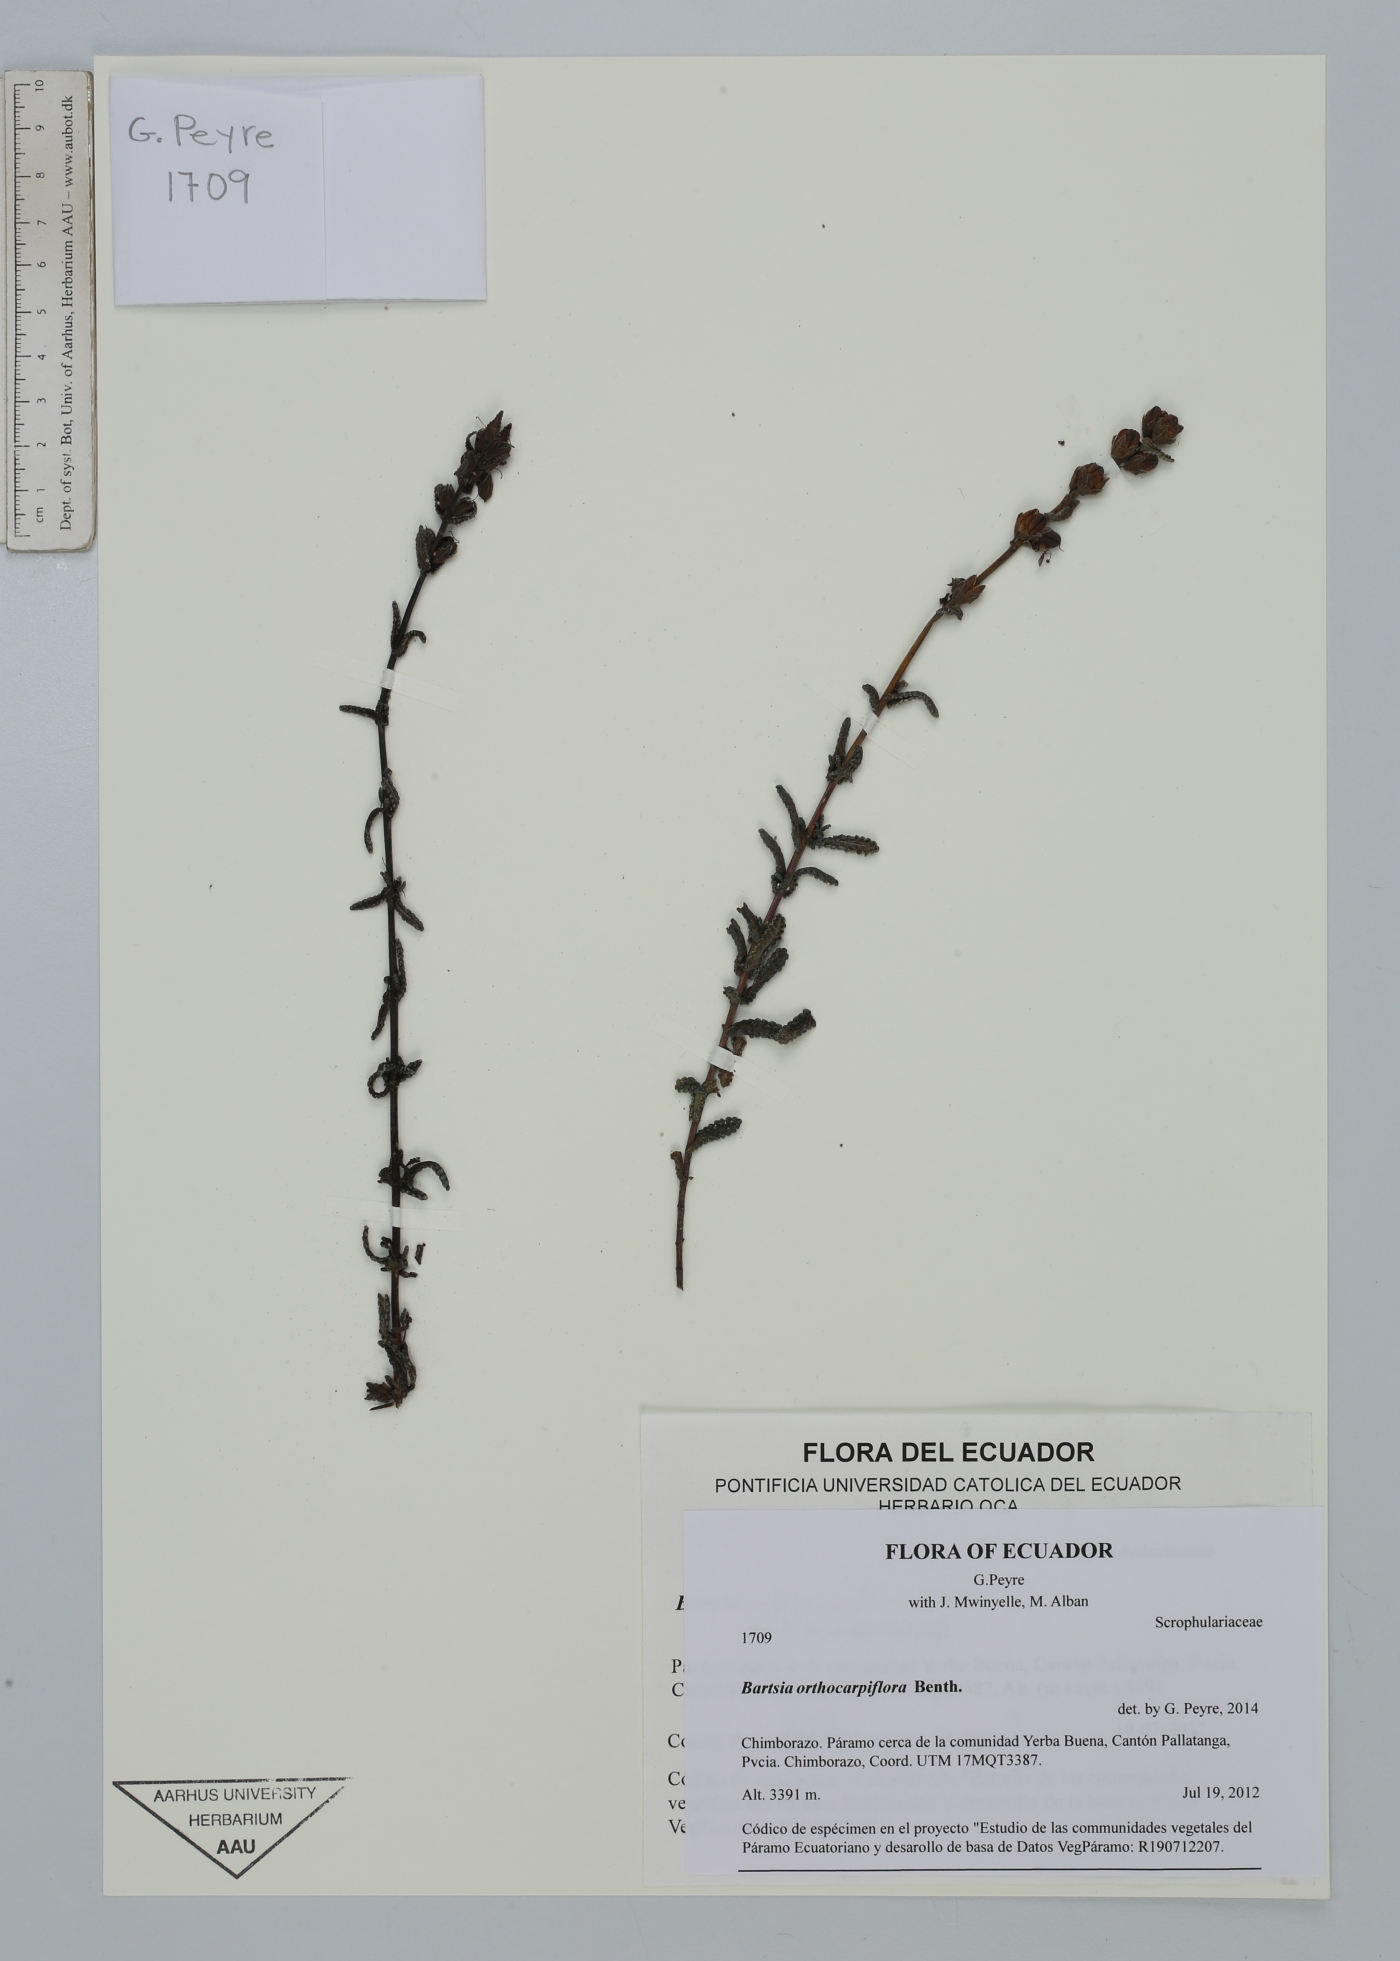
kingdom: Plantae
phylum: Tracheophyta
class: Magnoliopsida
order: Lamiales
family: Orobanchaceae
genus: Neobartsia
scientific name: Neobartsia orthocarpiflora
